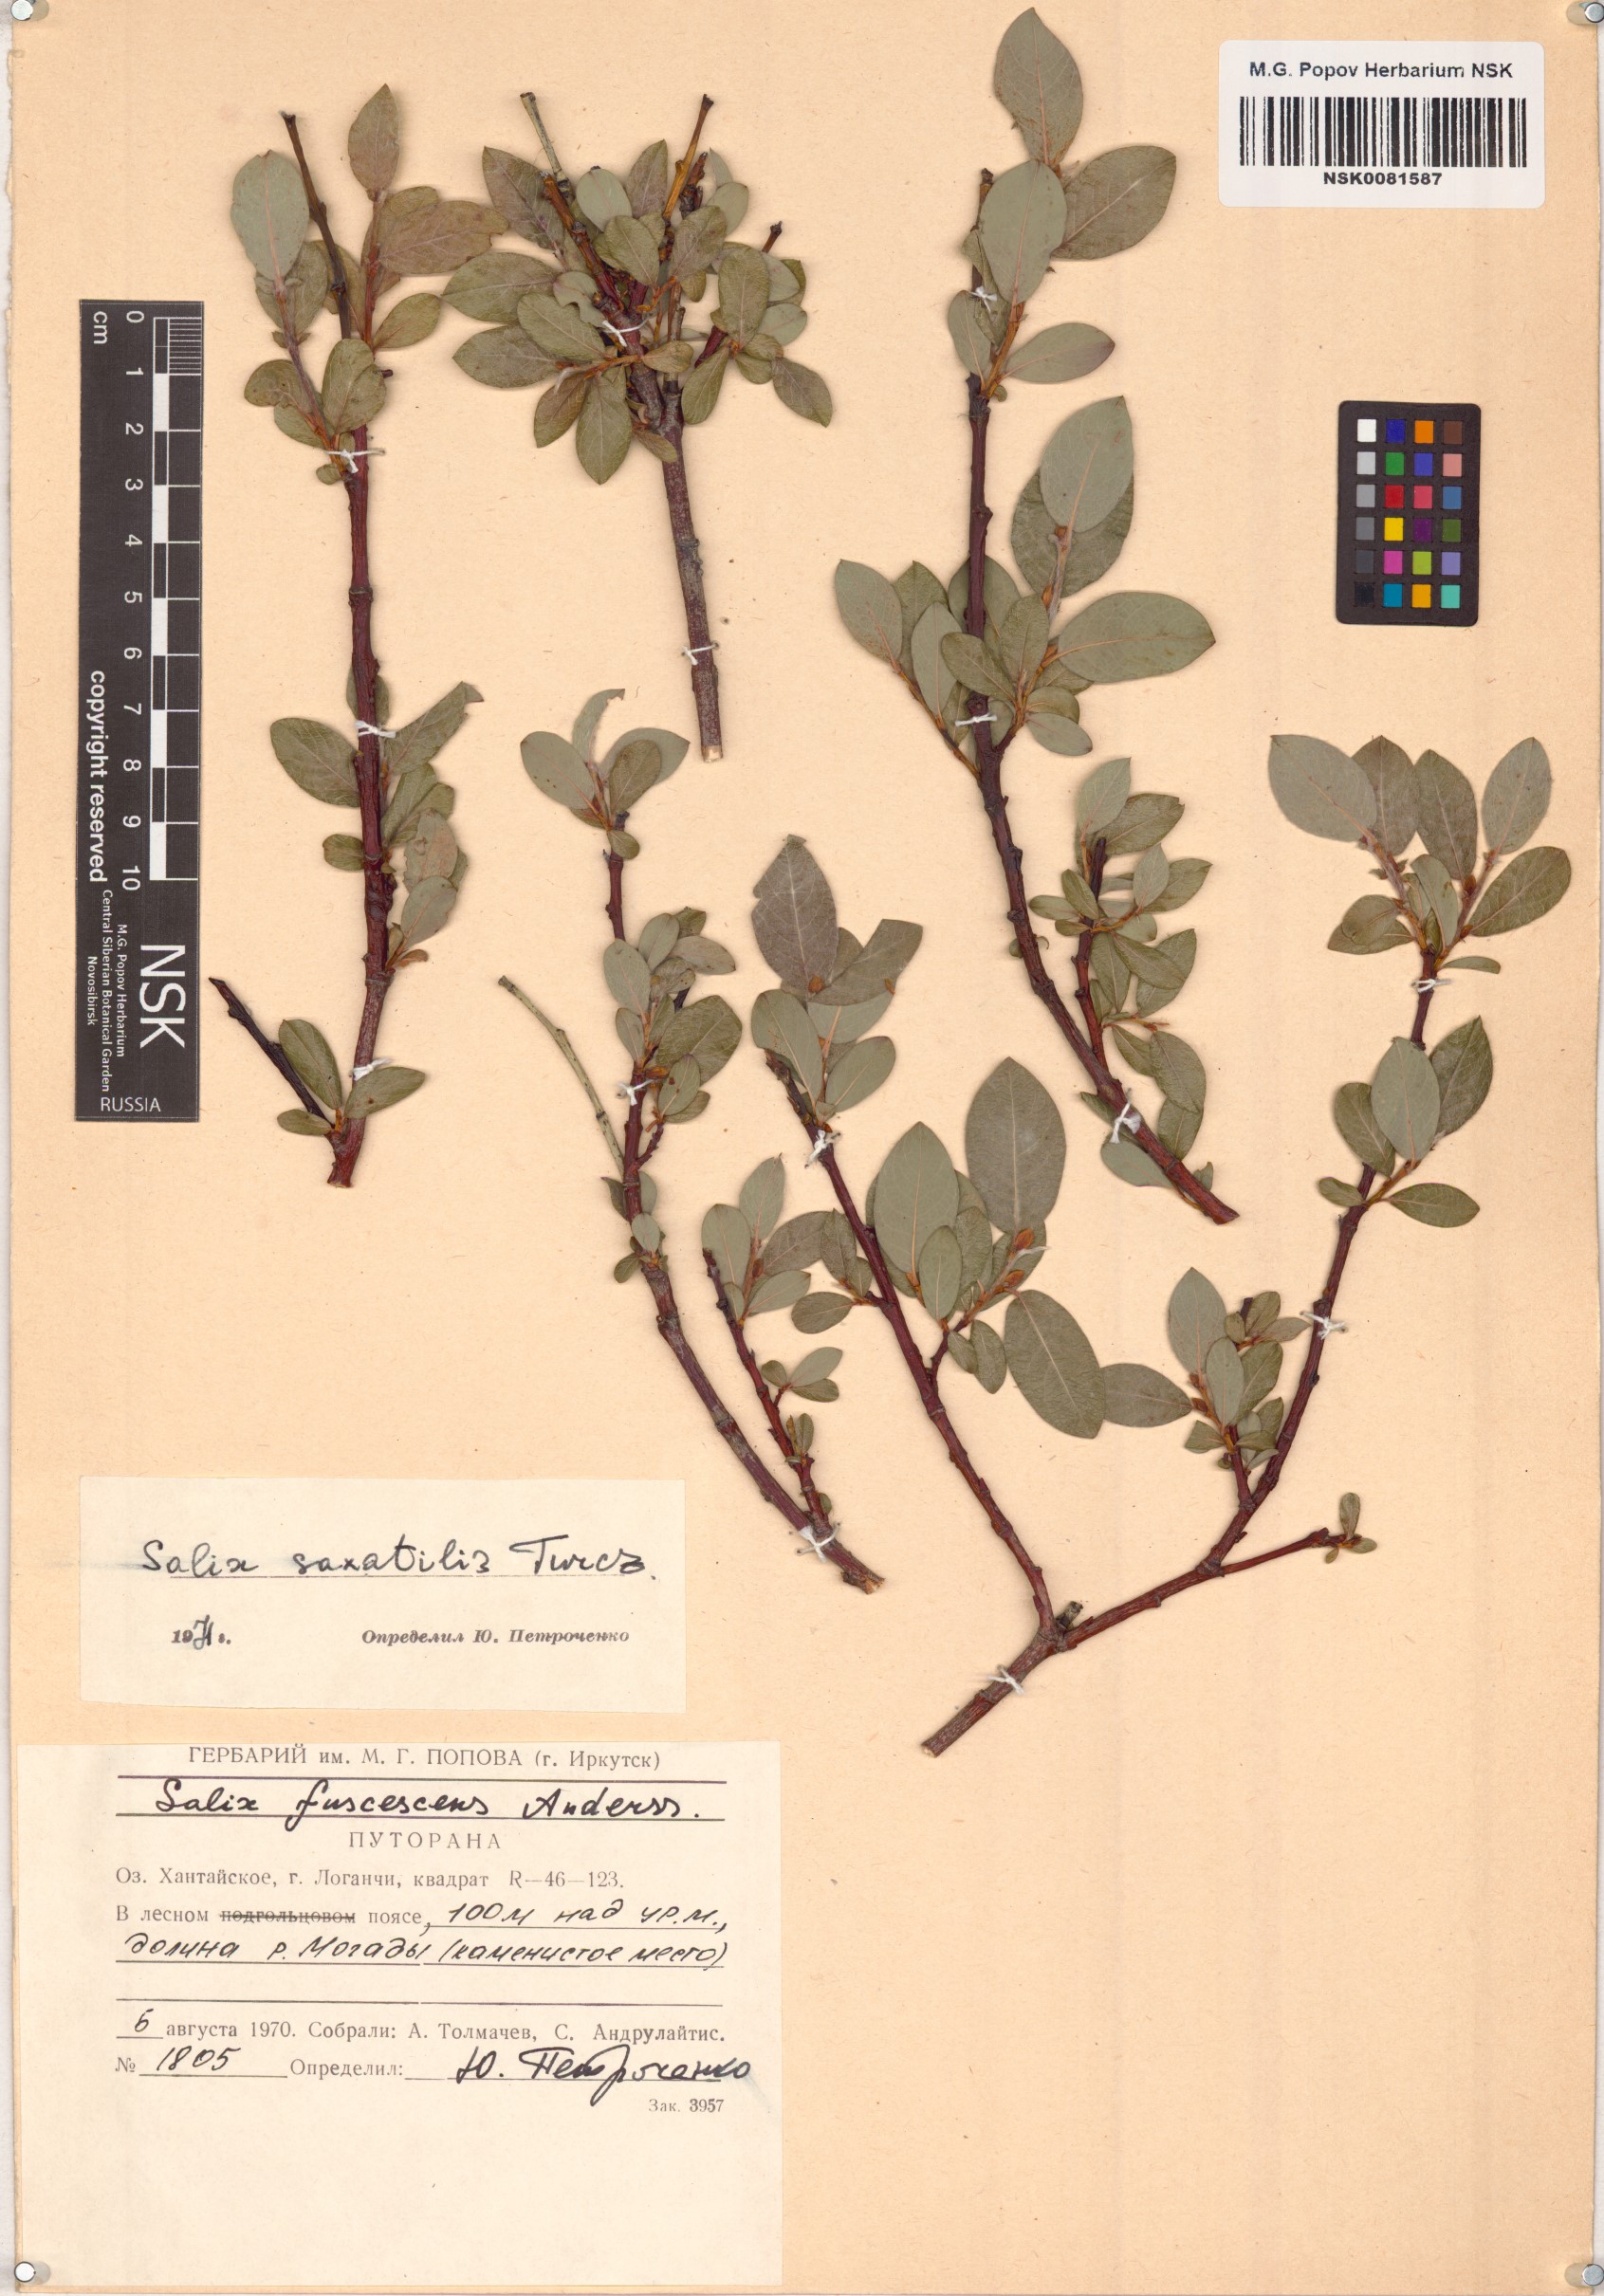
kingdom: Plantae
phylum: Tracheophyta
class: Magnoliopsida
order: Malpighiales
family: Salicaceae
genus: Salix
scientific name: Salix saxatilis
